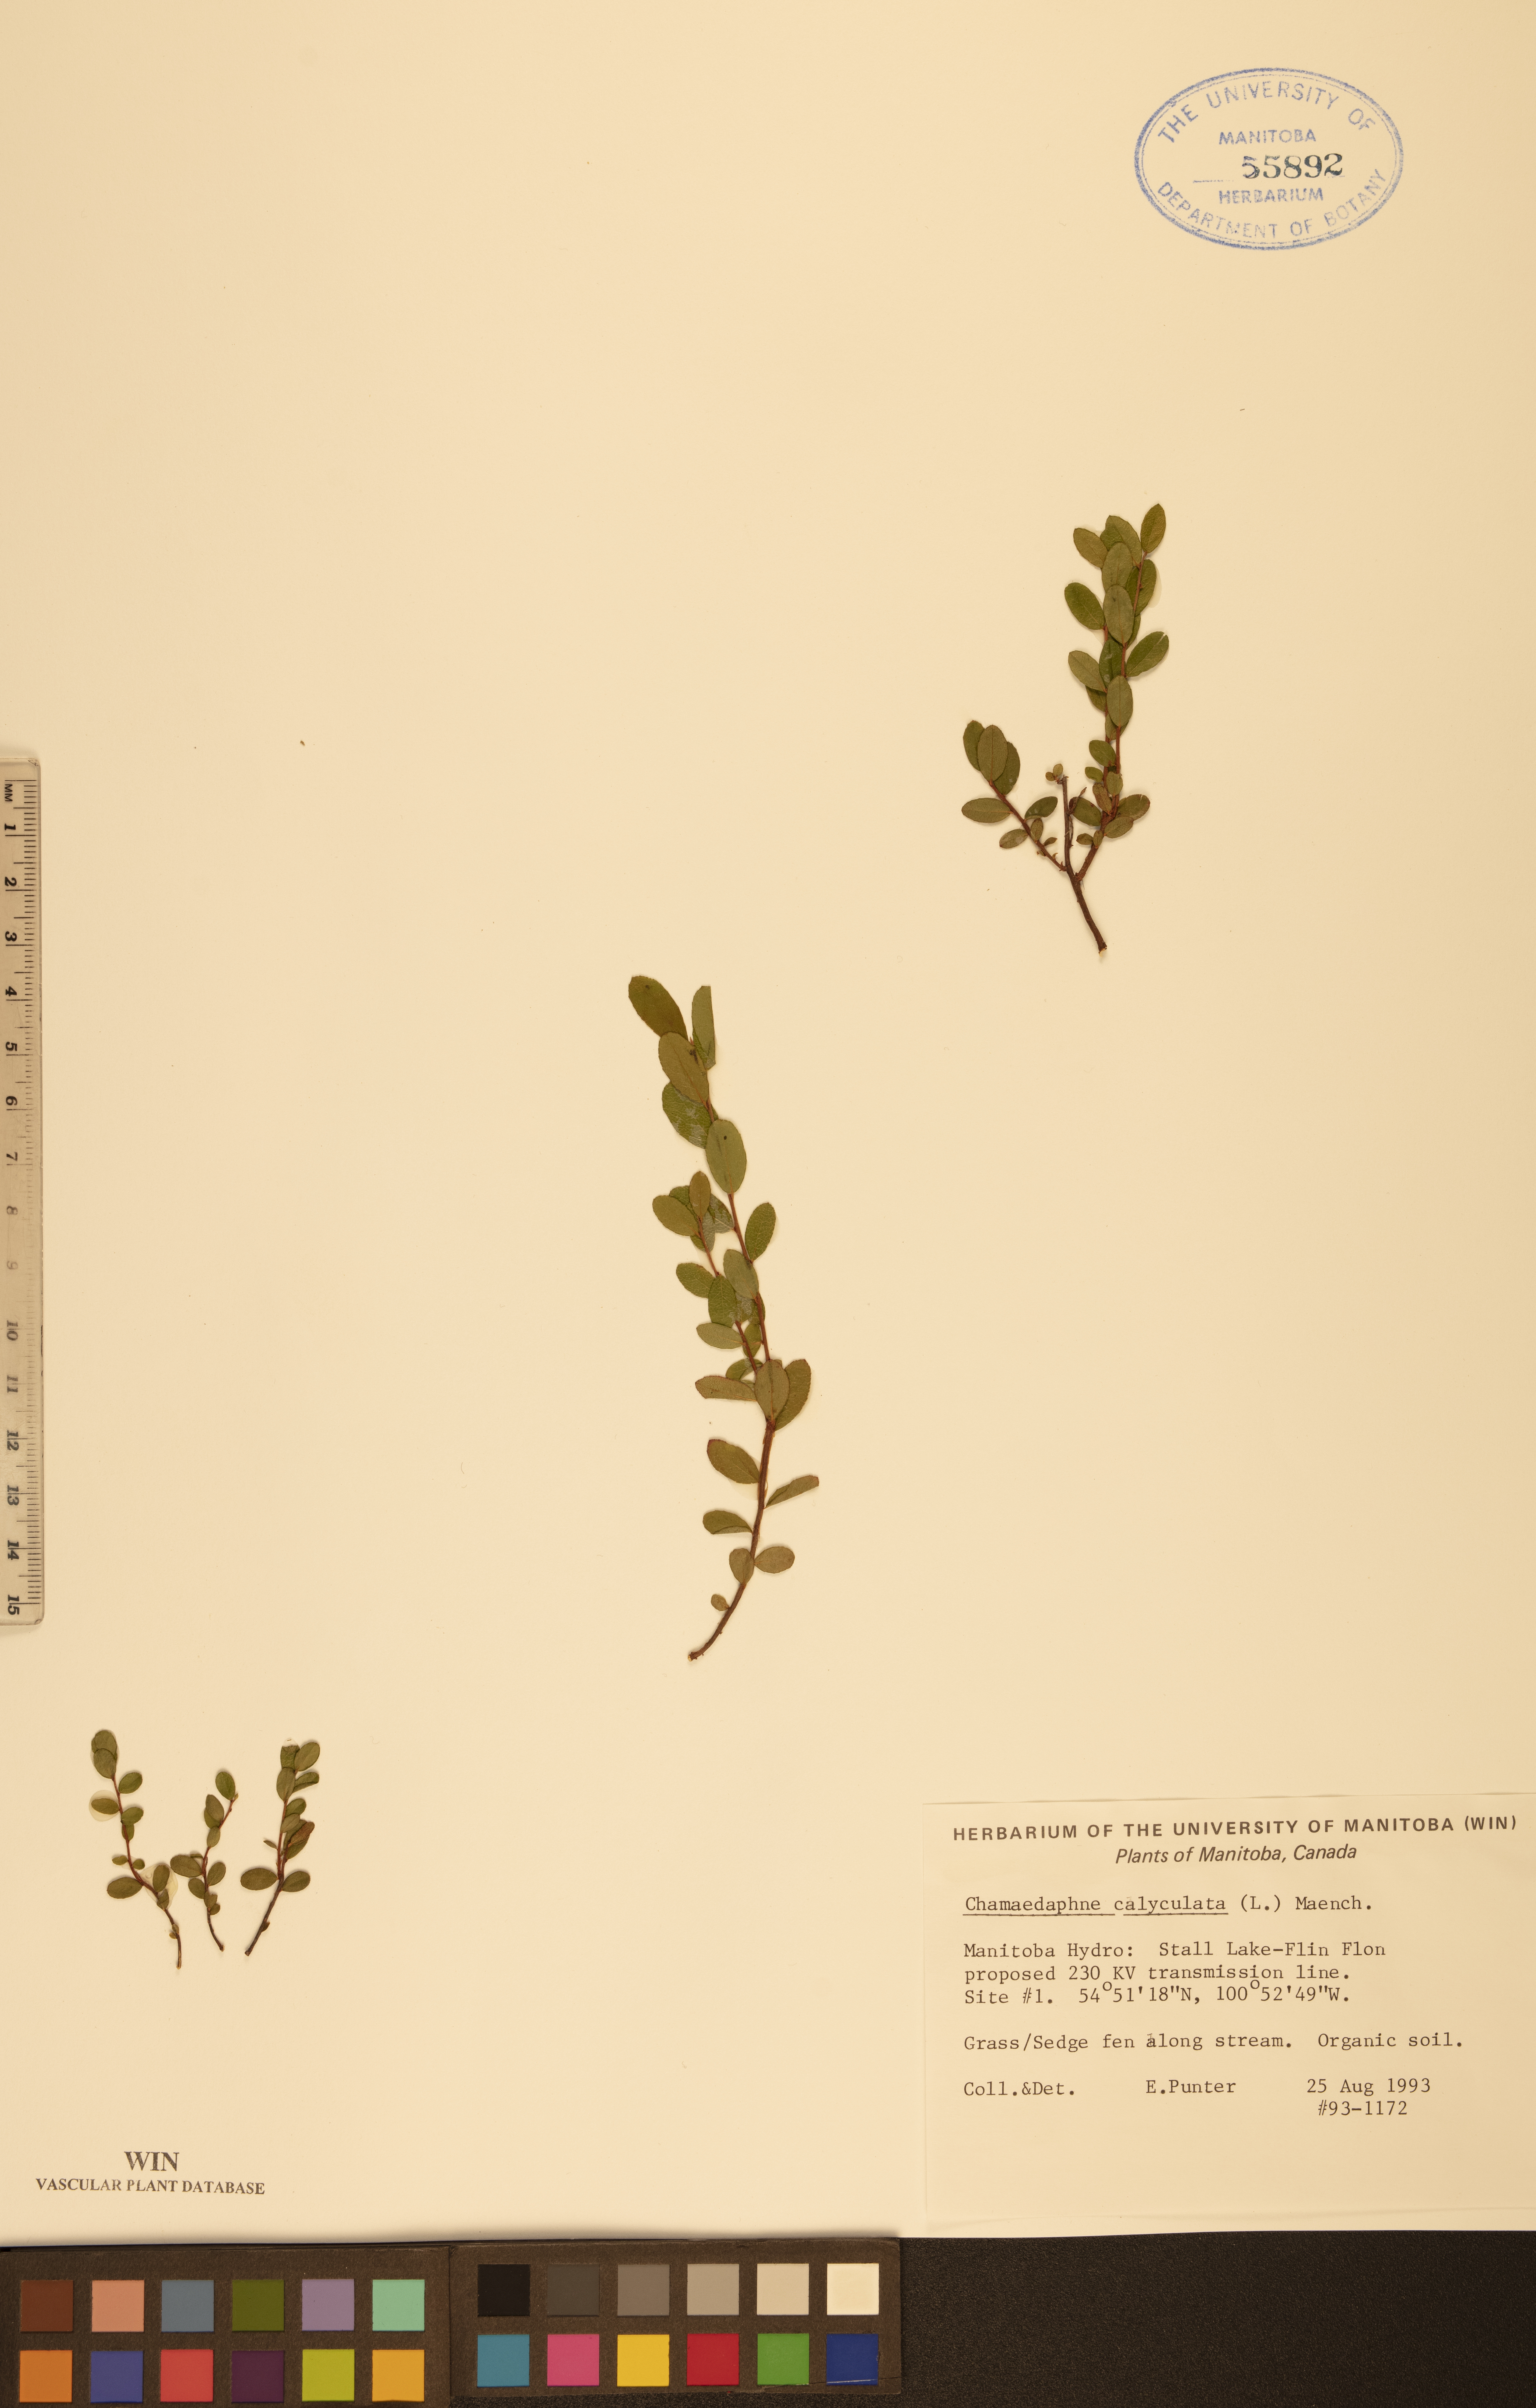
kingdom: Plantae
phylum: Tracheophyta
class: Magnoliopsida
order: Ericales
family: Ericaceae
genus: Chamaedaphne
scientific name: Chamaedaphne calyculata
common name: Leatherleaf
